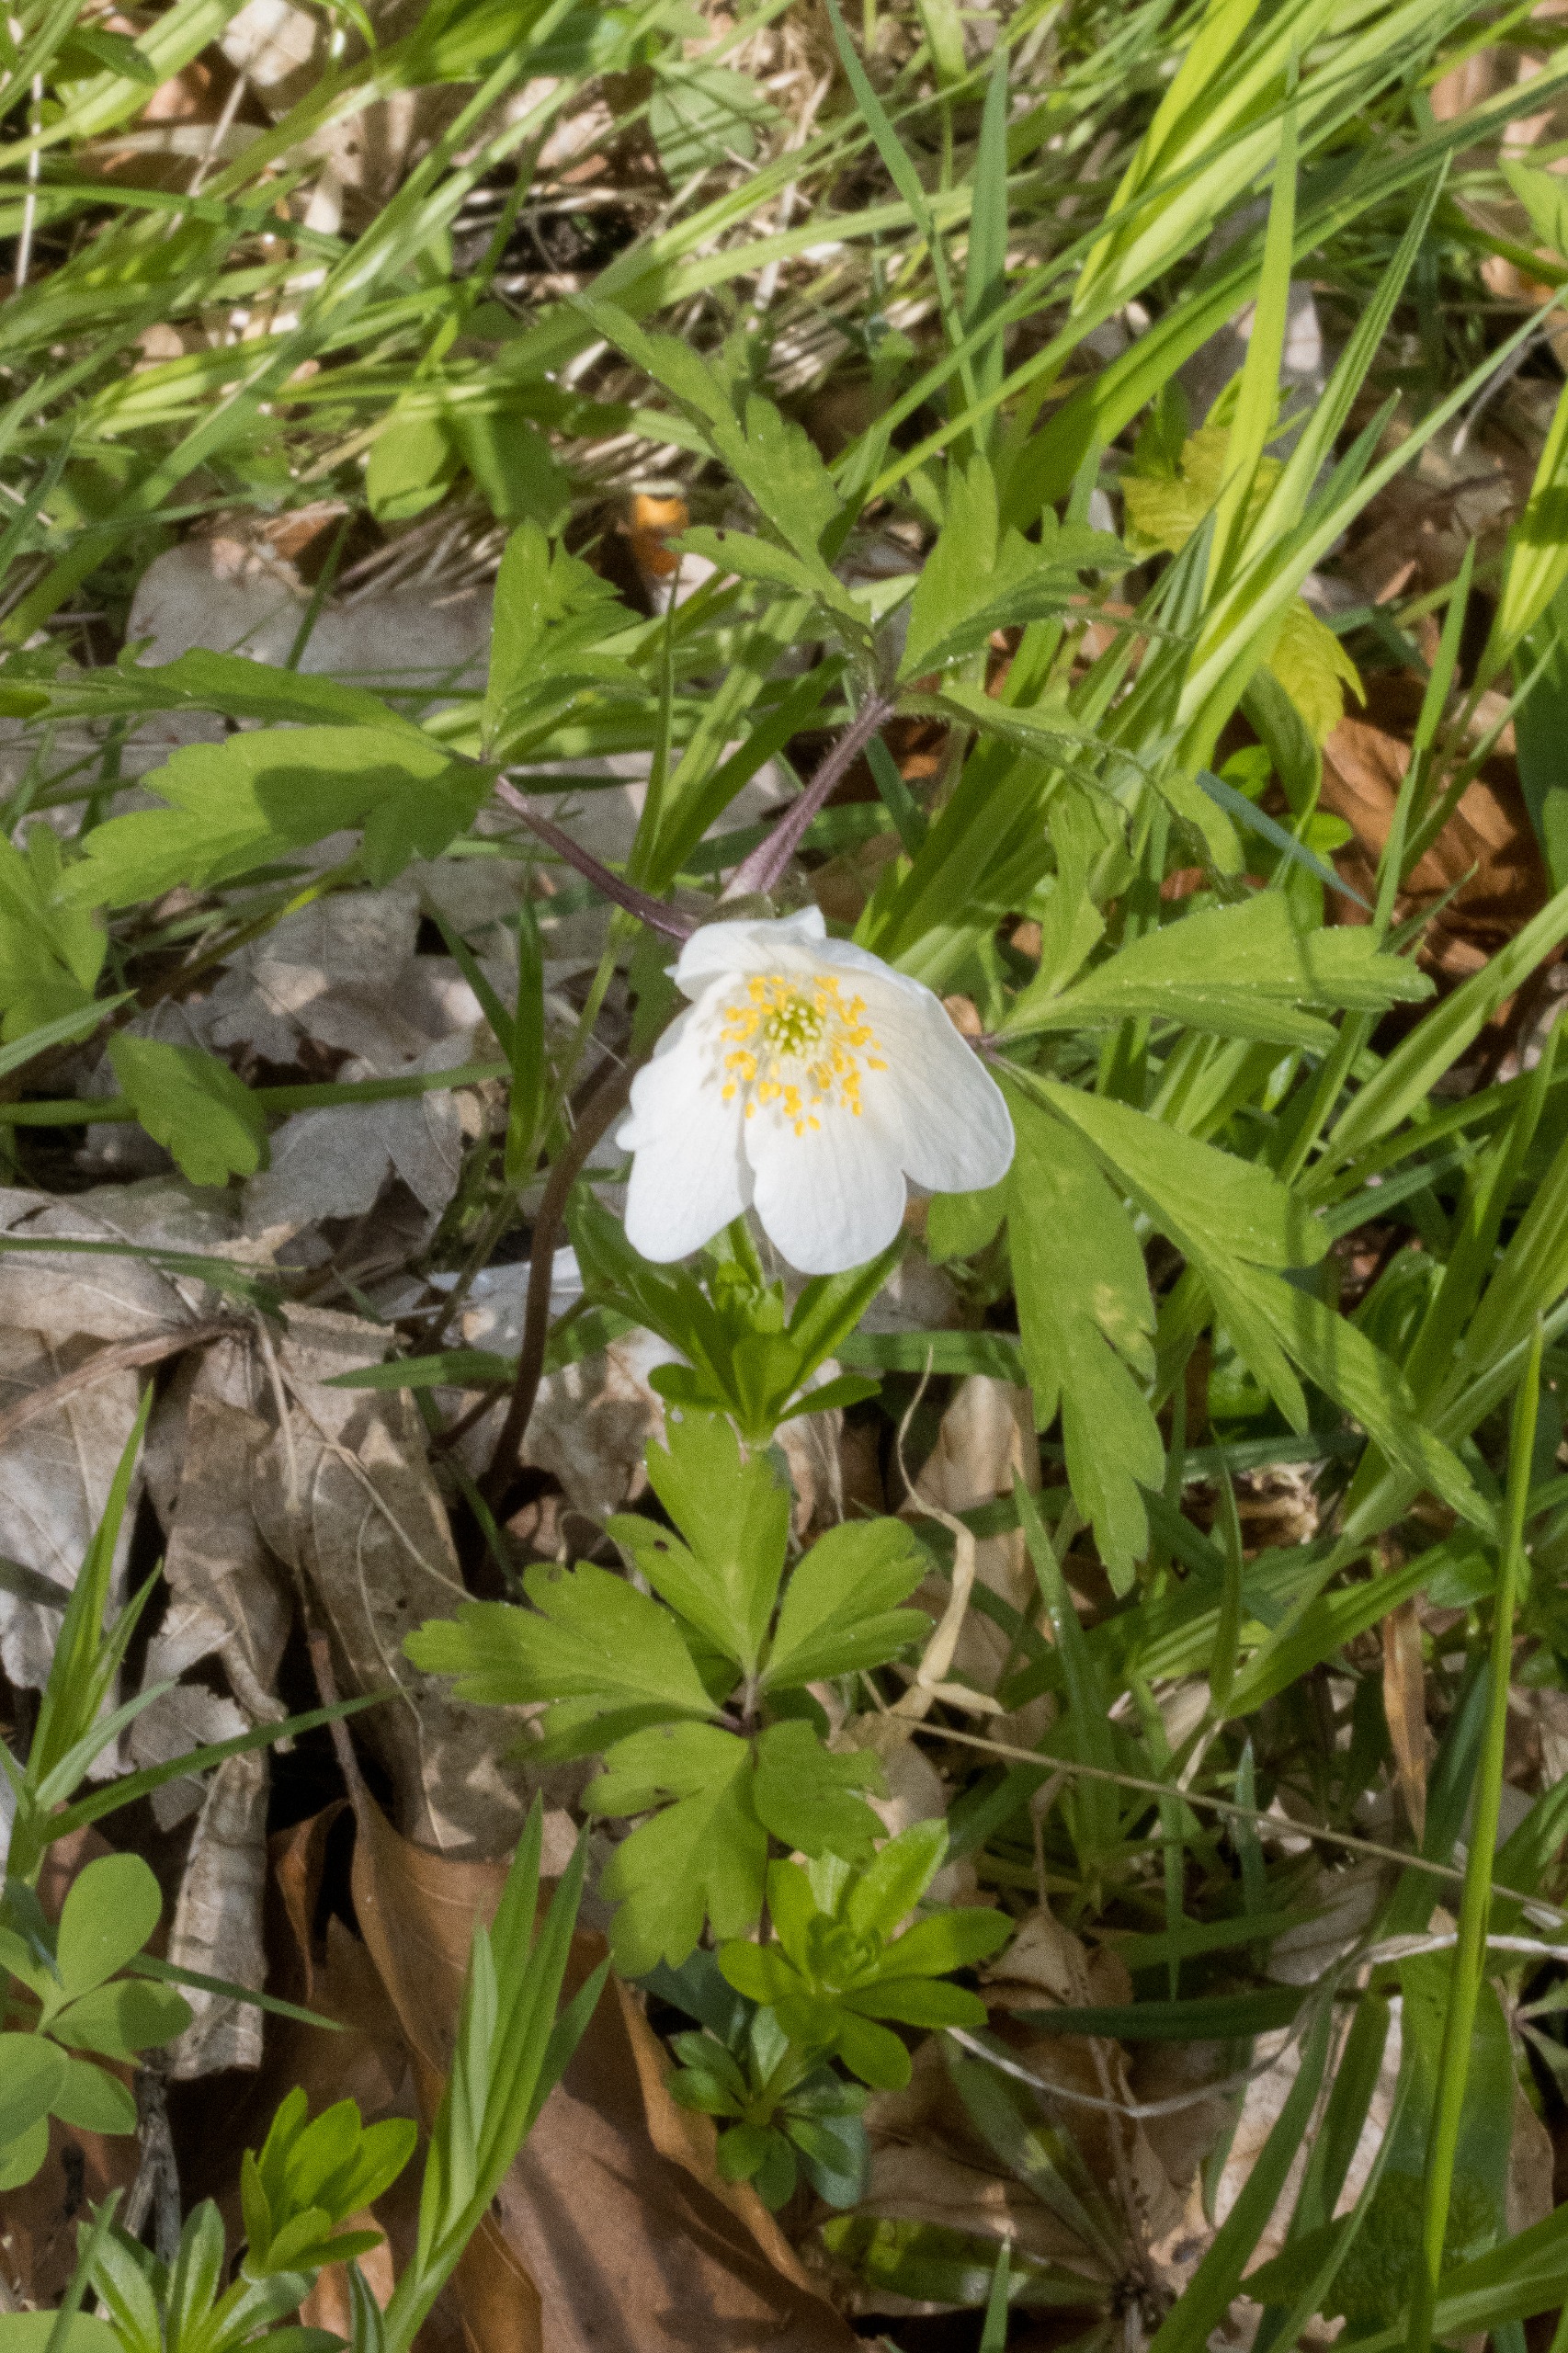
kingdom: Plantae
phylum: Tracheophyta
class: Magnoliopsida
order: Ranunculales
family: Ranunculaceae
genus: Anemone
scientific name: Anemone nemorosa
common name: Hvid anemone
